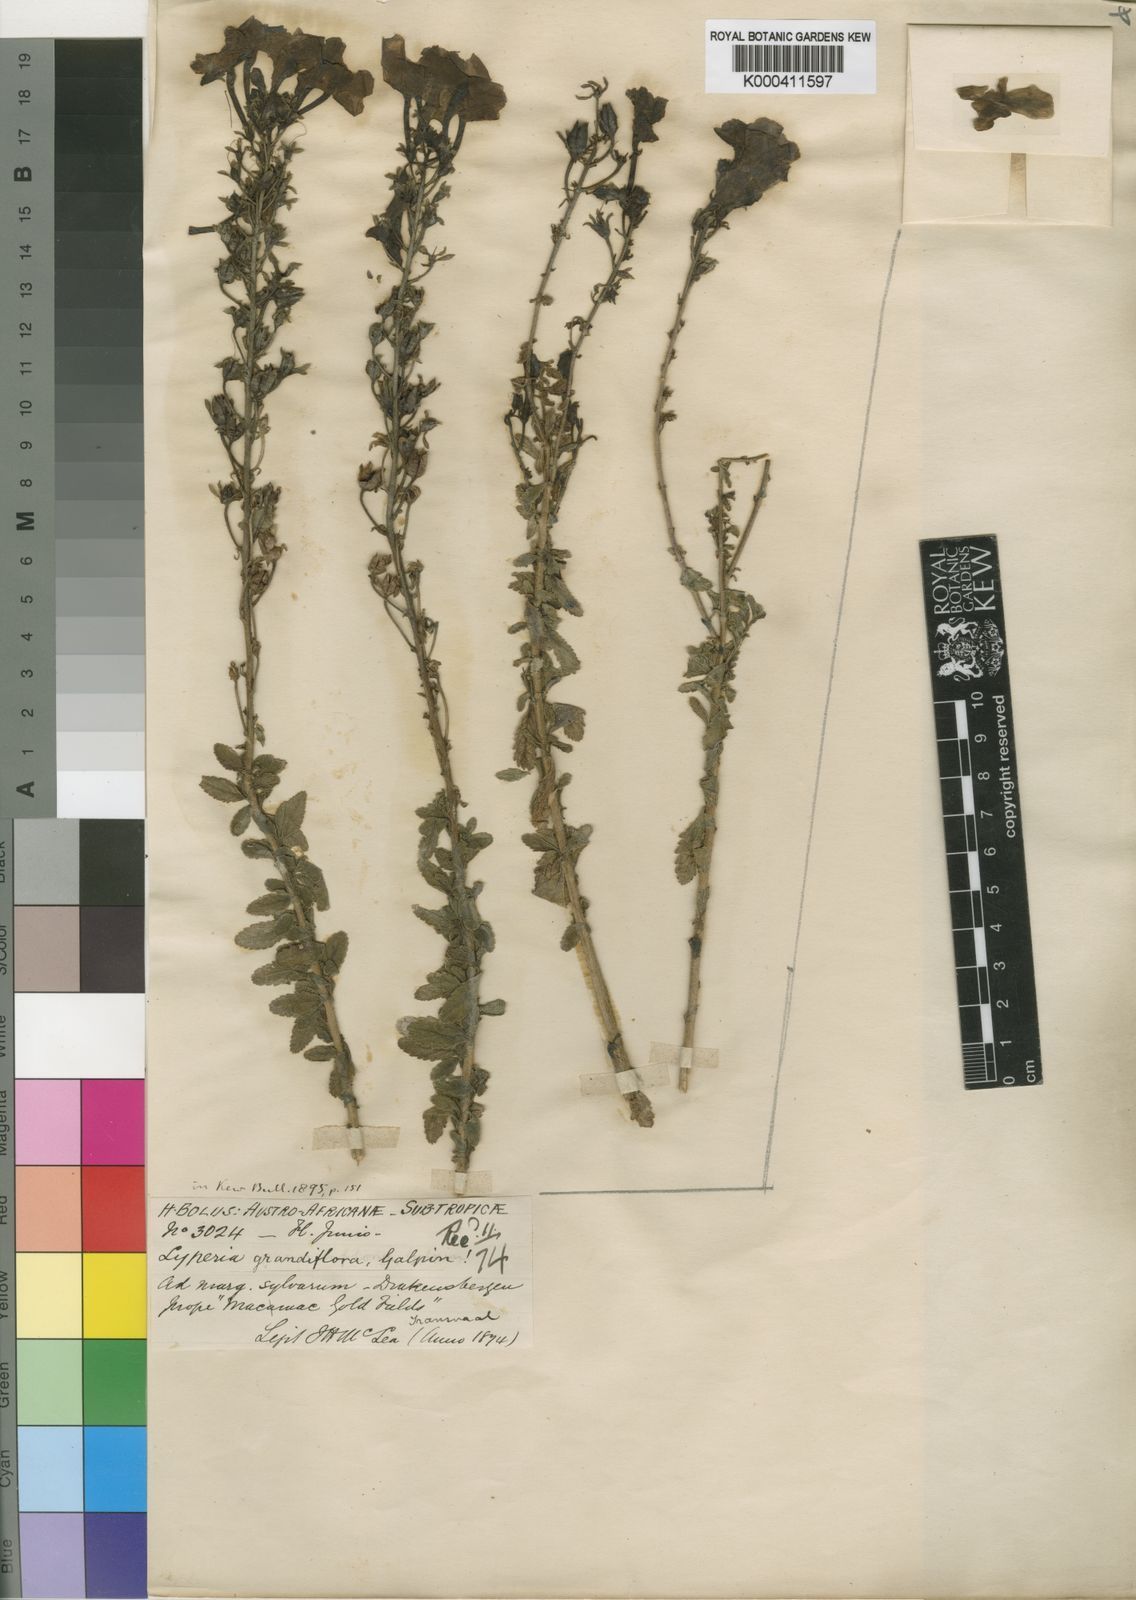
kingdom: Plantae
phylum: Tracheophyta
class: Magnoliopsida
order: Lamiales
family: Scrophulariaceae
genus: Jamesbrittenia
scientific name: Jamesbrittenia grandiflora
